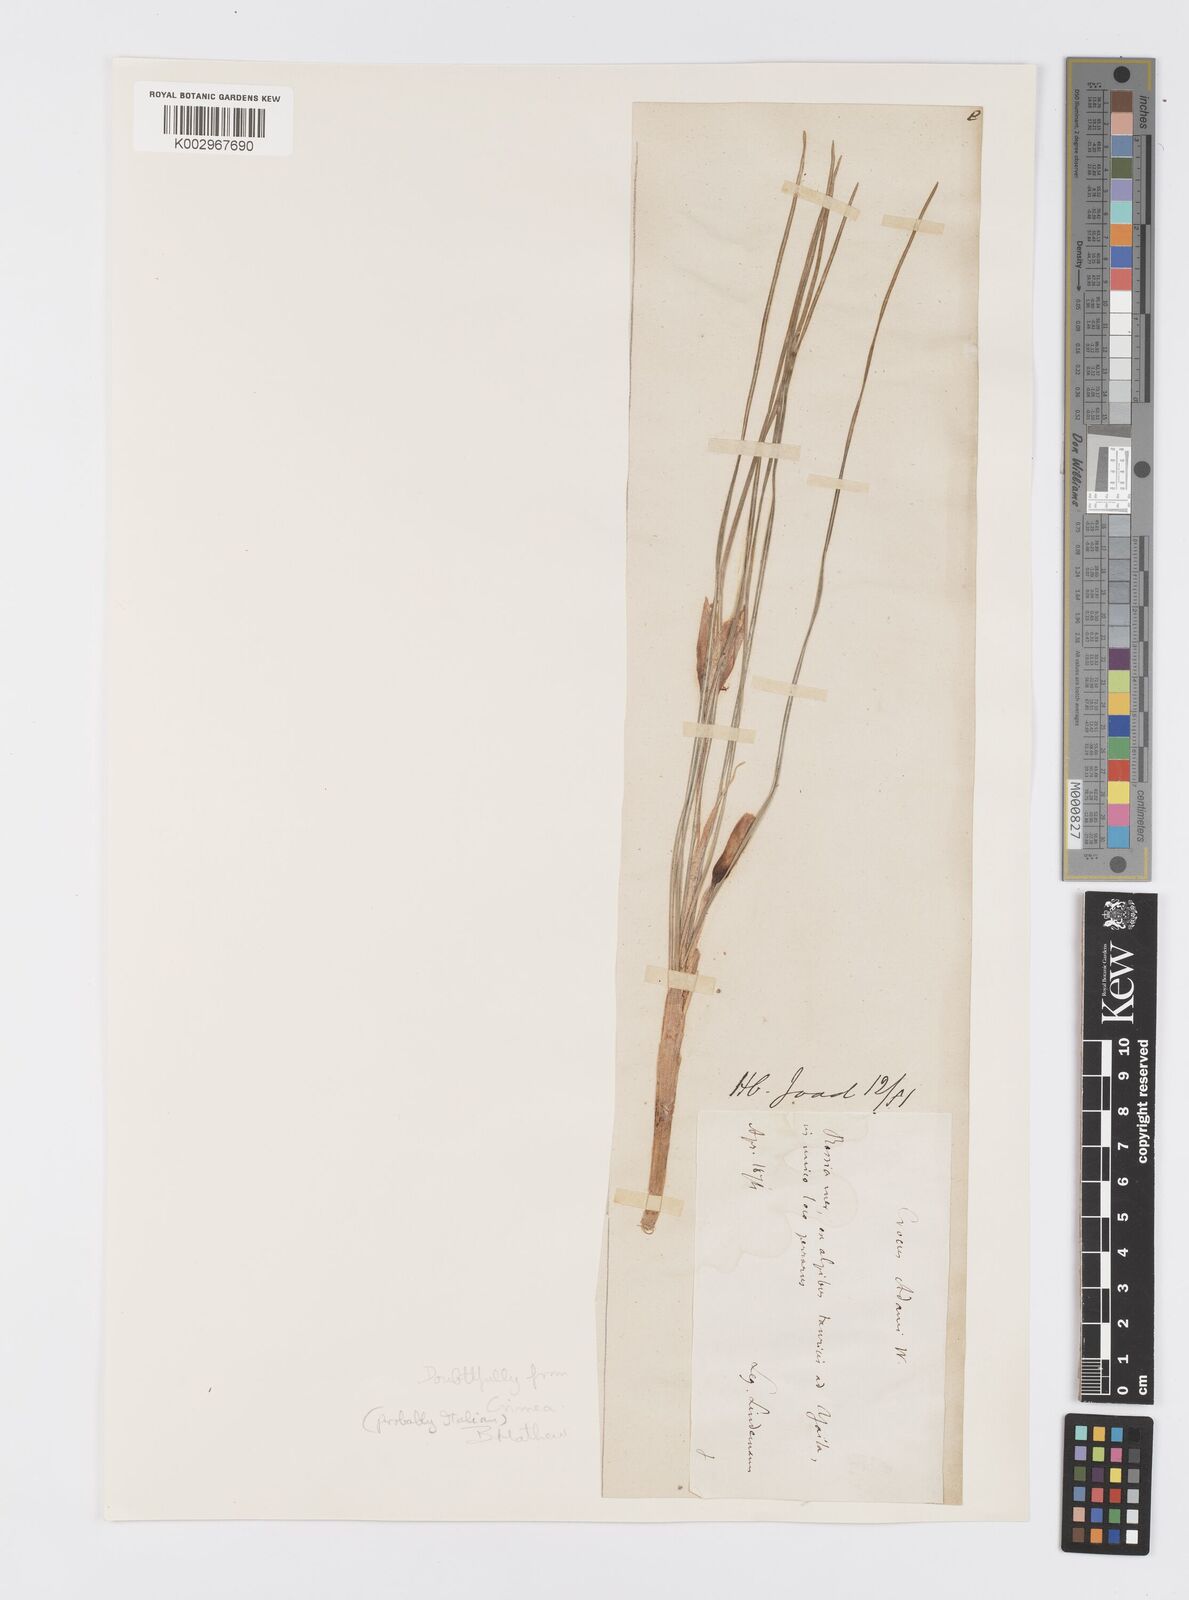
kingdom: Plantae
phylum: Tracheophyta
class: Liliopsida
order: Asparagales
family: Iridaceae
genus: Crocus
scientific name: Crocus biflorus
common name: Silvery crocus
